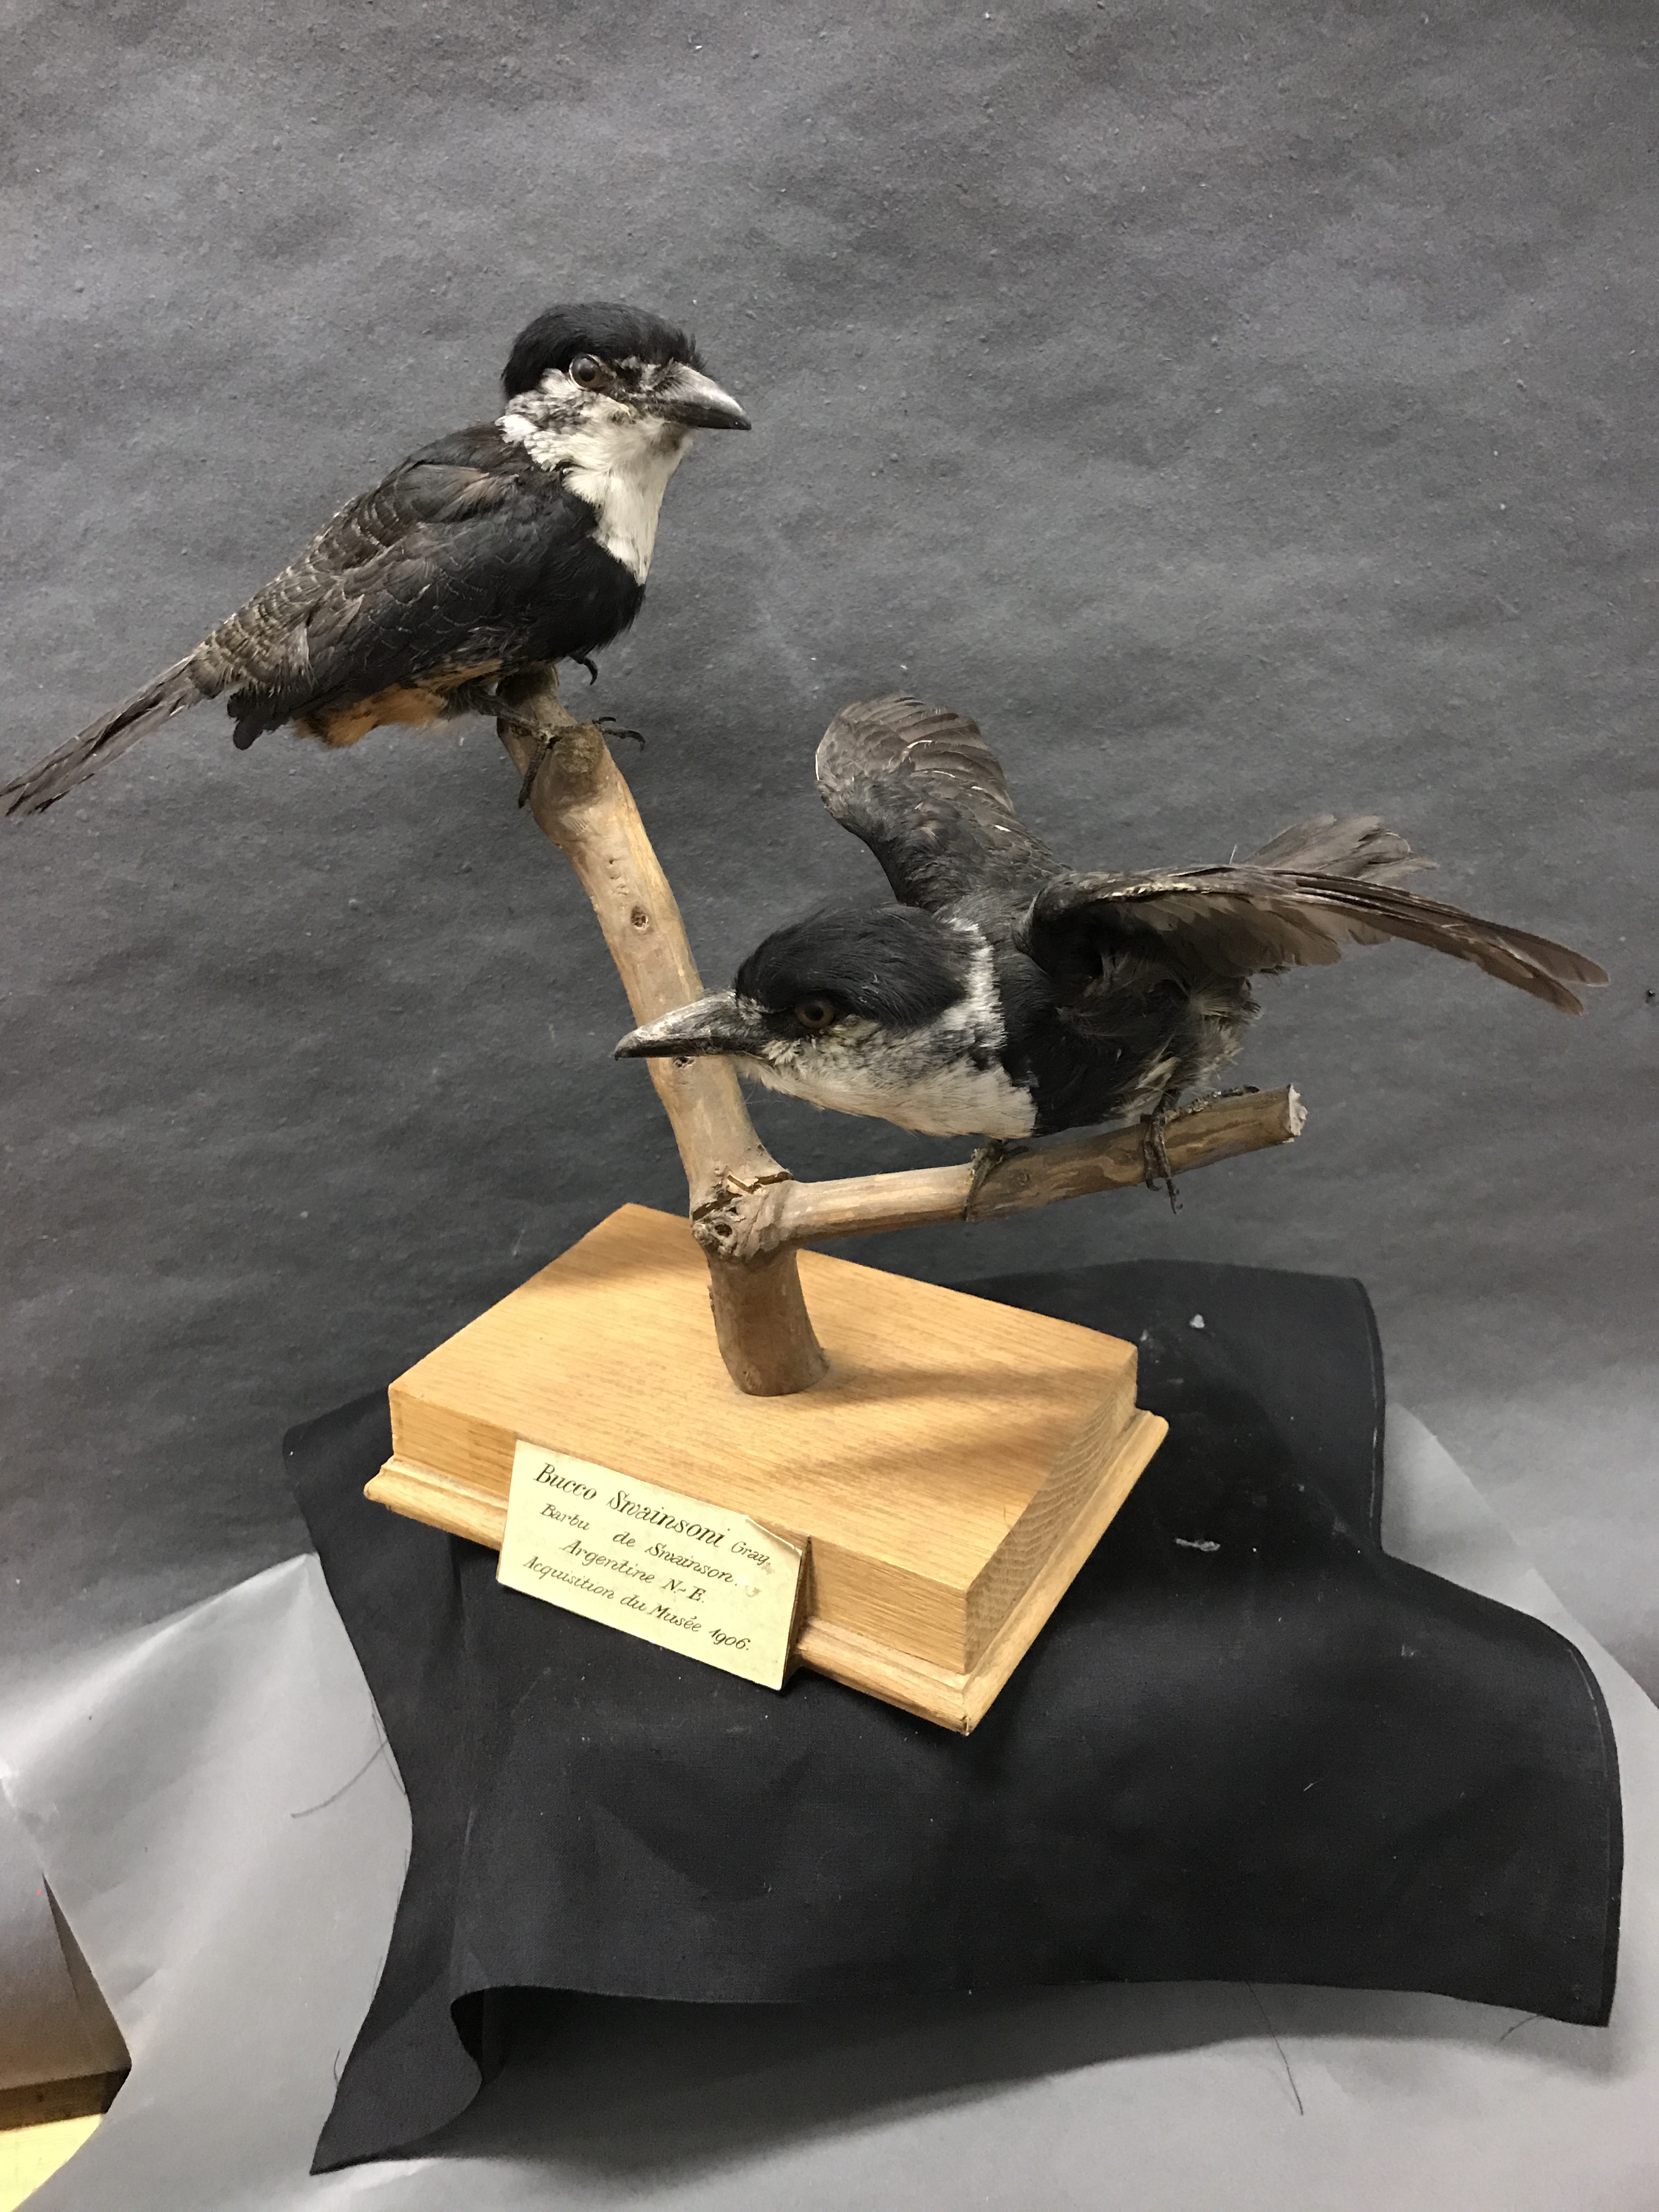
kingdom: Animalia
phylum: Chordata
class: Aves
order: Piciformes
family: Bucconidae
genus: Notharchus
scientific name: Notharchus swainsoni
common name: Buff-bellied puffbird
